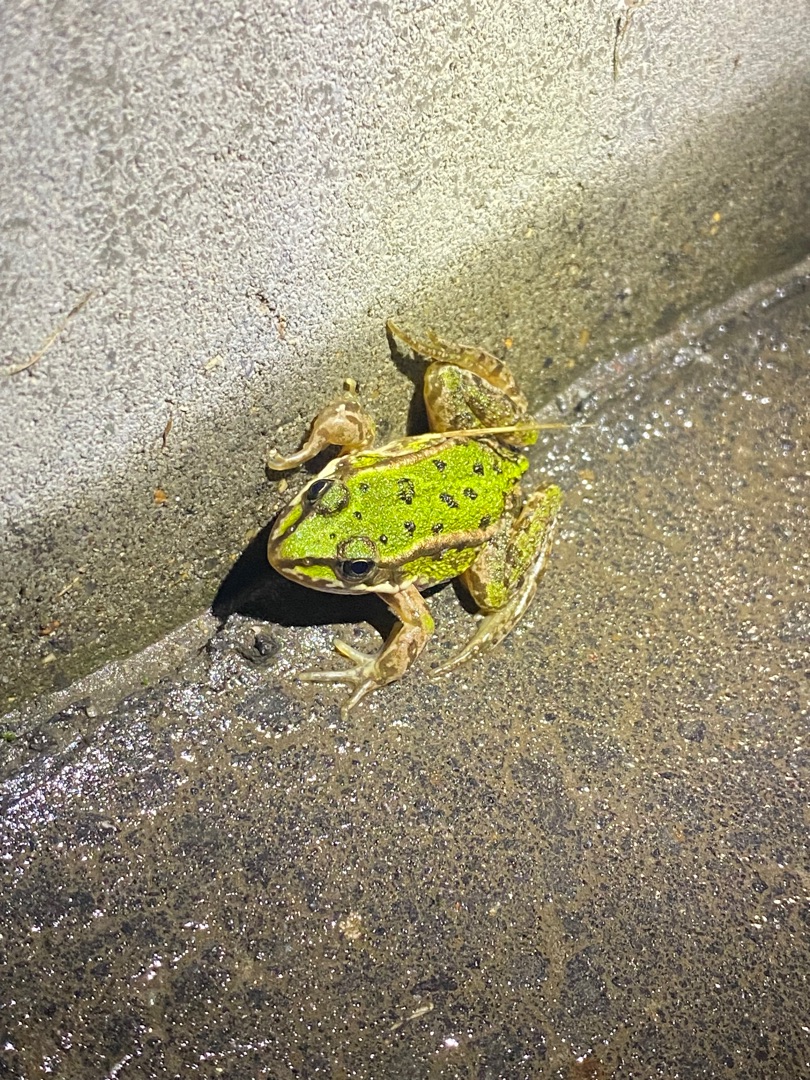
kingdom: Animalia
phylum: Chordata
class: Amphibia
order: Anura
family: Ranidae
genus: Pelophylax
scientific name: Pelophylax lessonae
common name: Grøn frø
